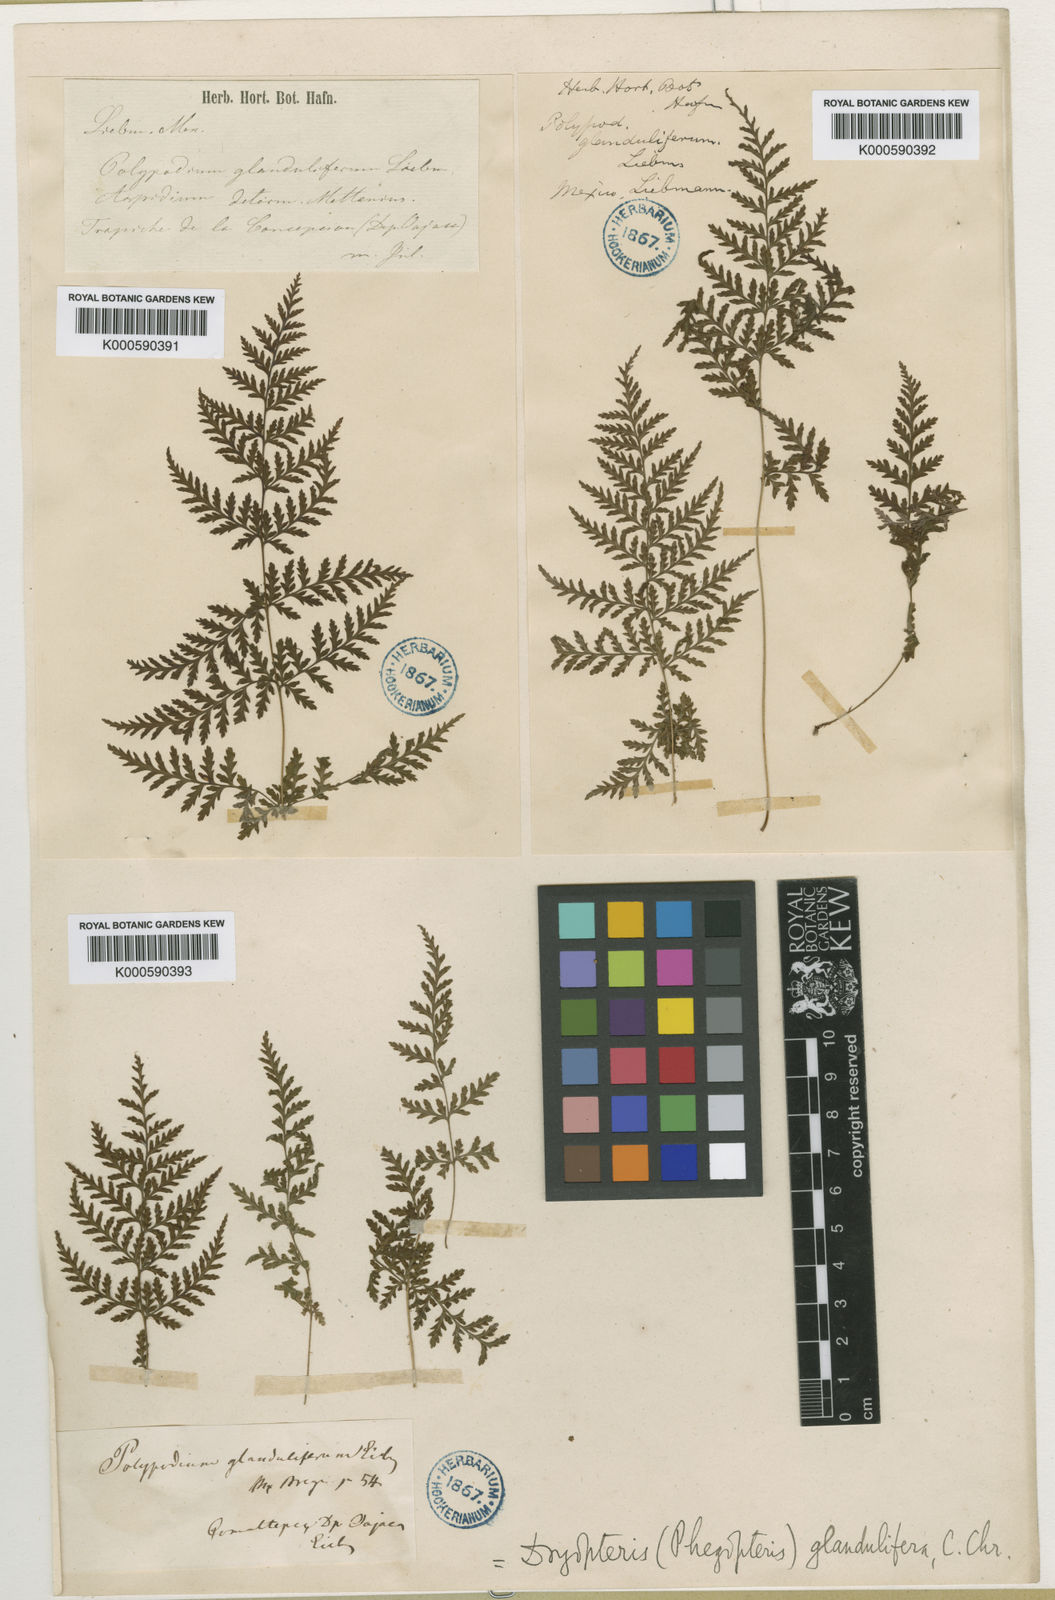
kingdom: Plantae
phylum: Tracheophyta
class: Polypodiopsida
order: Polypodiales
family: Dryopteridaceae
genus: Dryopteris
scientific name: Dryopteris cinnamomea
